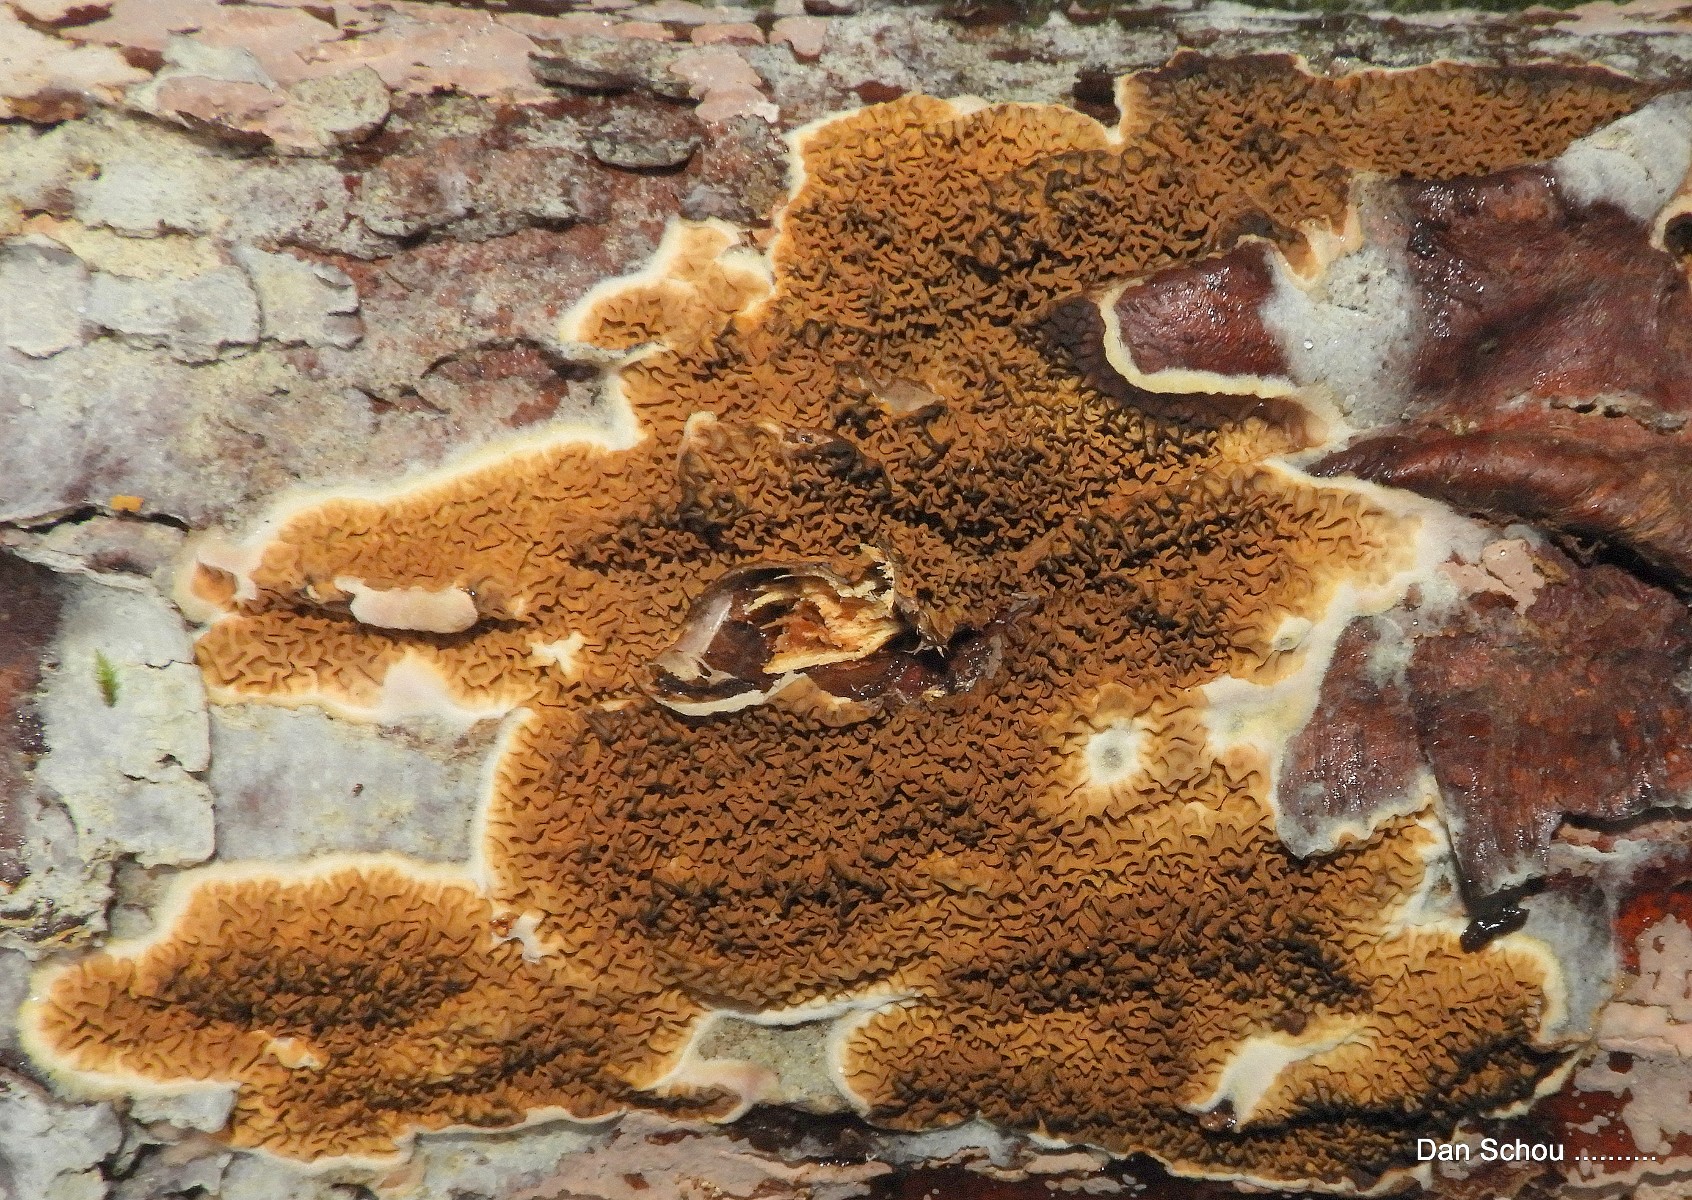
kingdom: Fungi
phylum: Basidiomycota
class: Agaricomycetes
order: Boletales
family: Serpulaceae
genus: Serpula
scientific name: Serpula himantioides
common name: tyndkødet hussvamp
